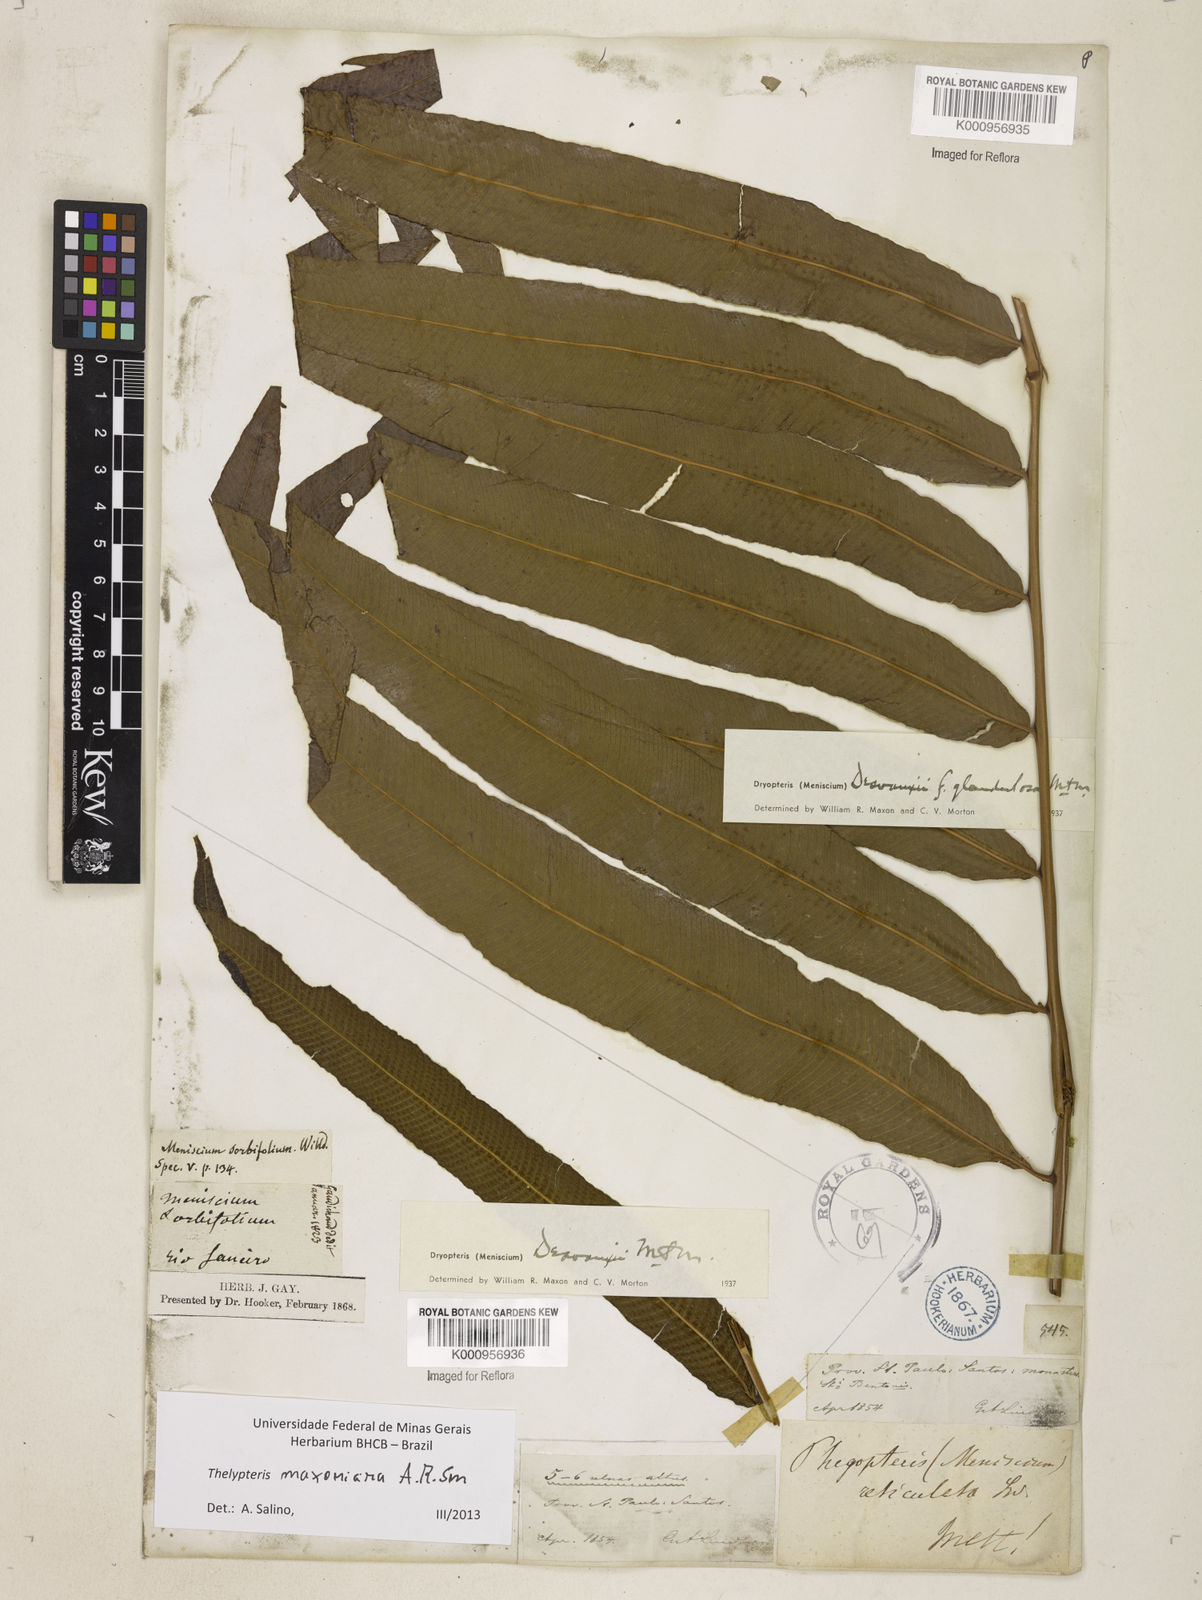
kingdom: Plantae
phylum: Tracheophyta
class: Polypodiopsida
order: Polypodiales
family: Thelypteridaceae
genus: Meniscium
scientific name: Meniscium maxonianum
